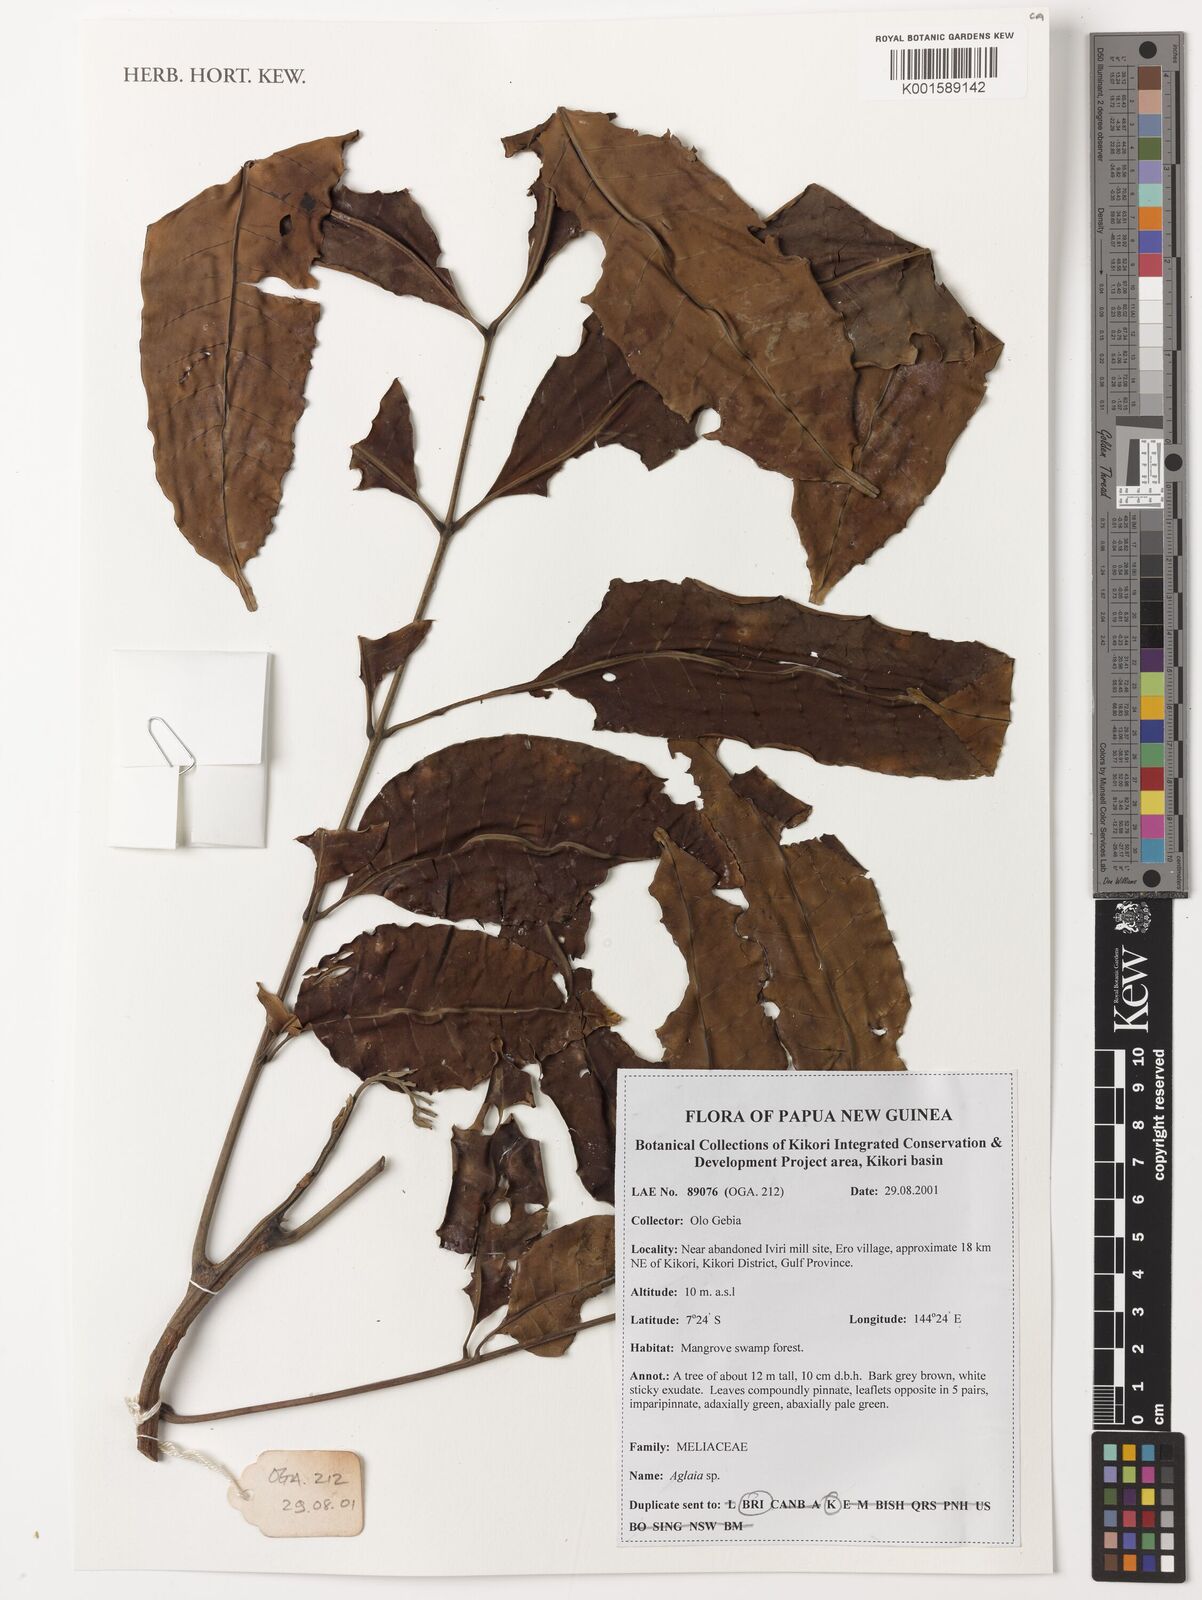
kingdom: Plantae
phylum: Tracheophyta
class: Magnoliopsida
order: Sapindales
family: Meliaceae
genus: Aglaia
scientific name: Aglaia
